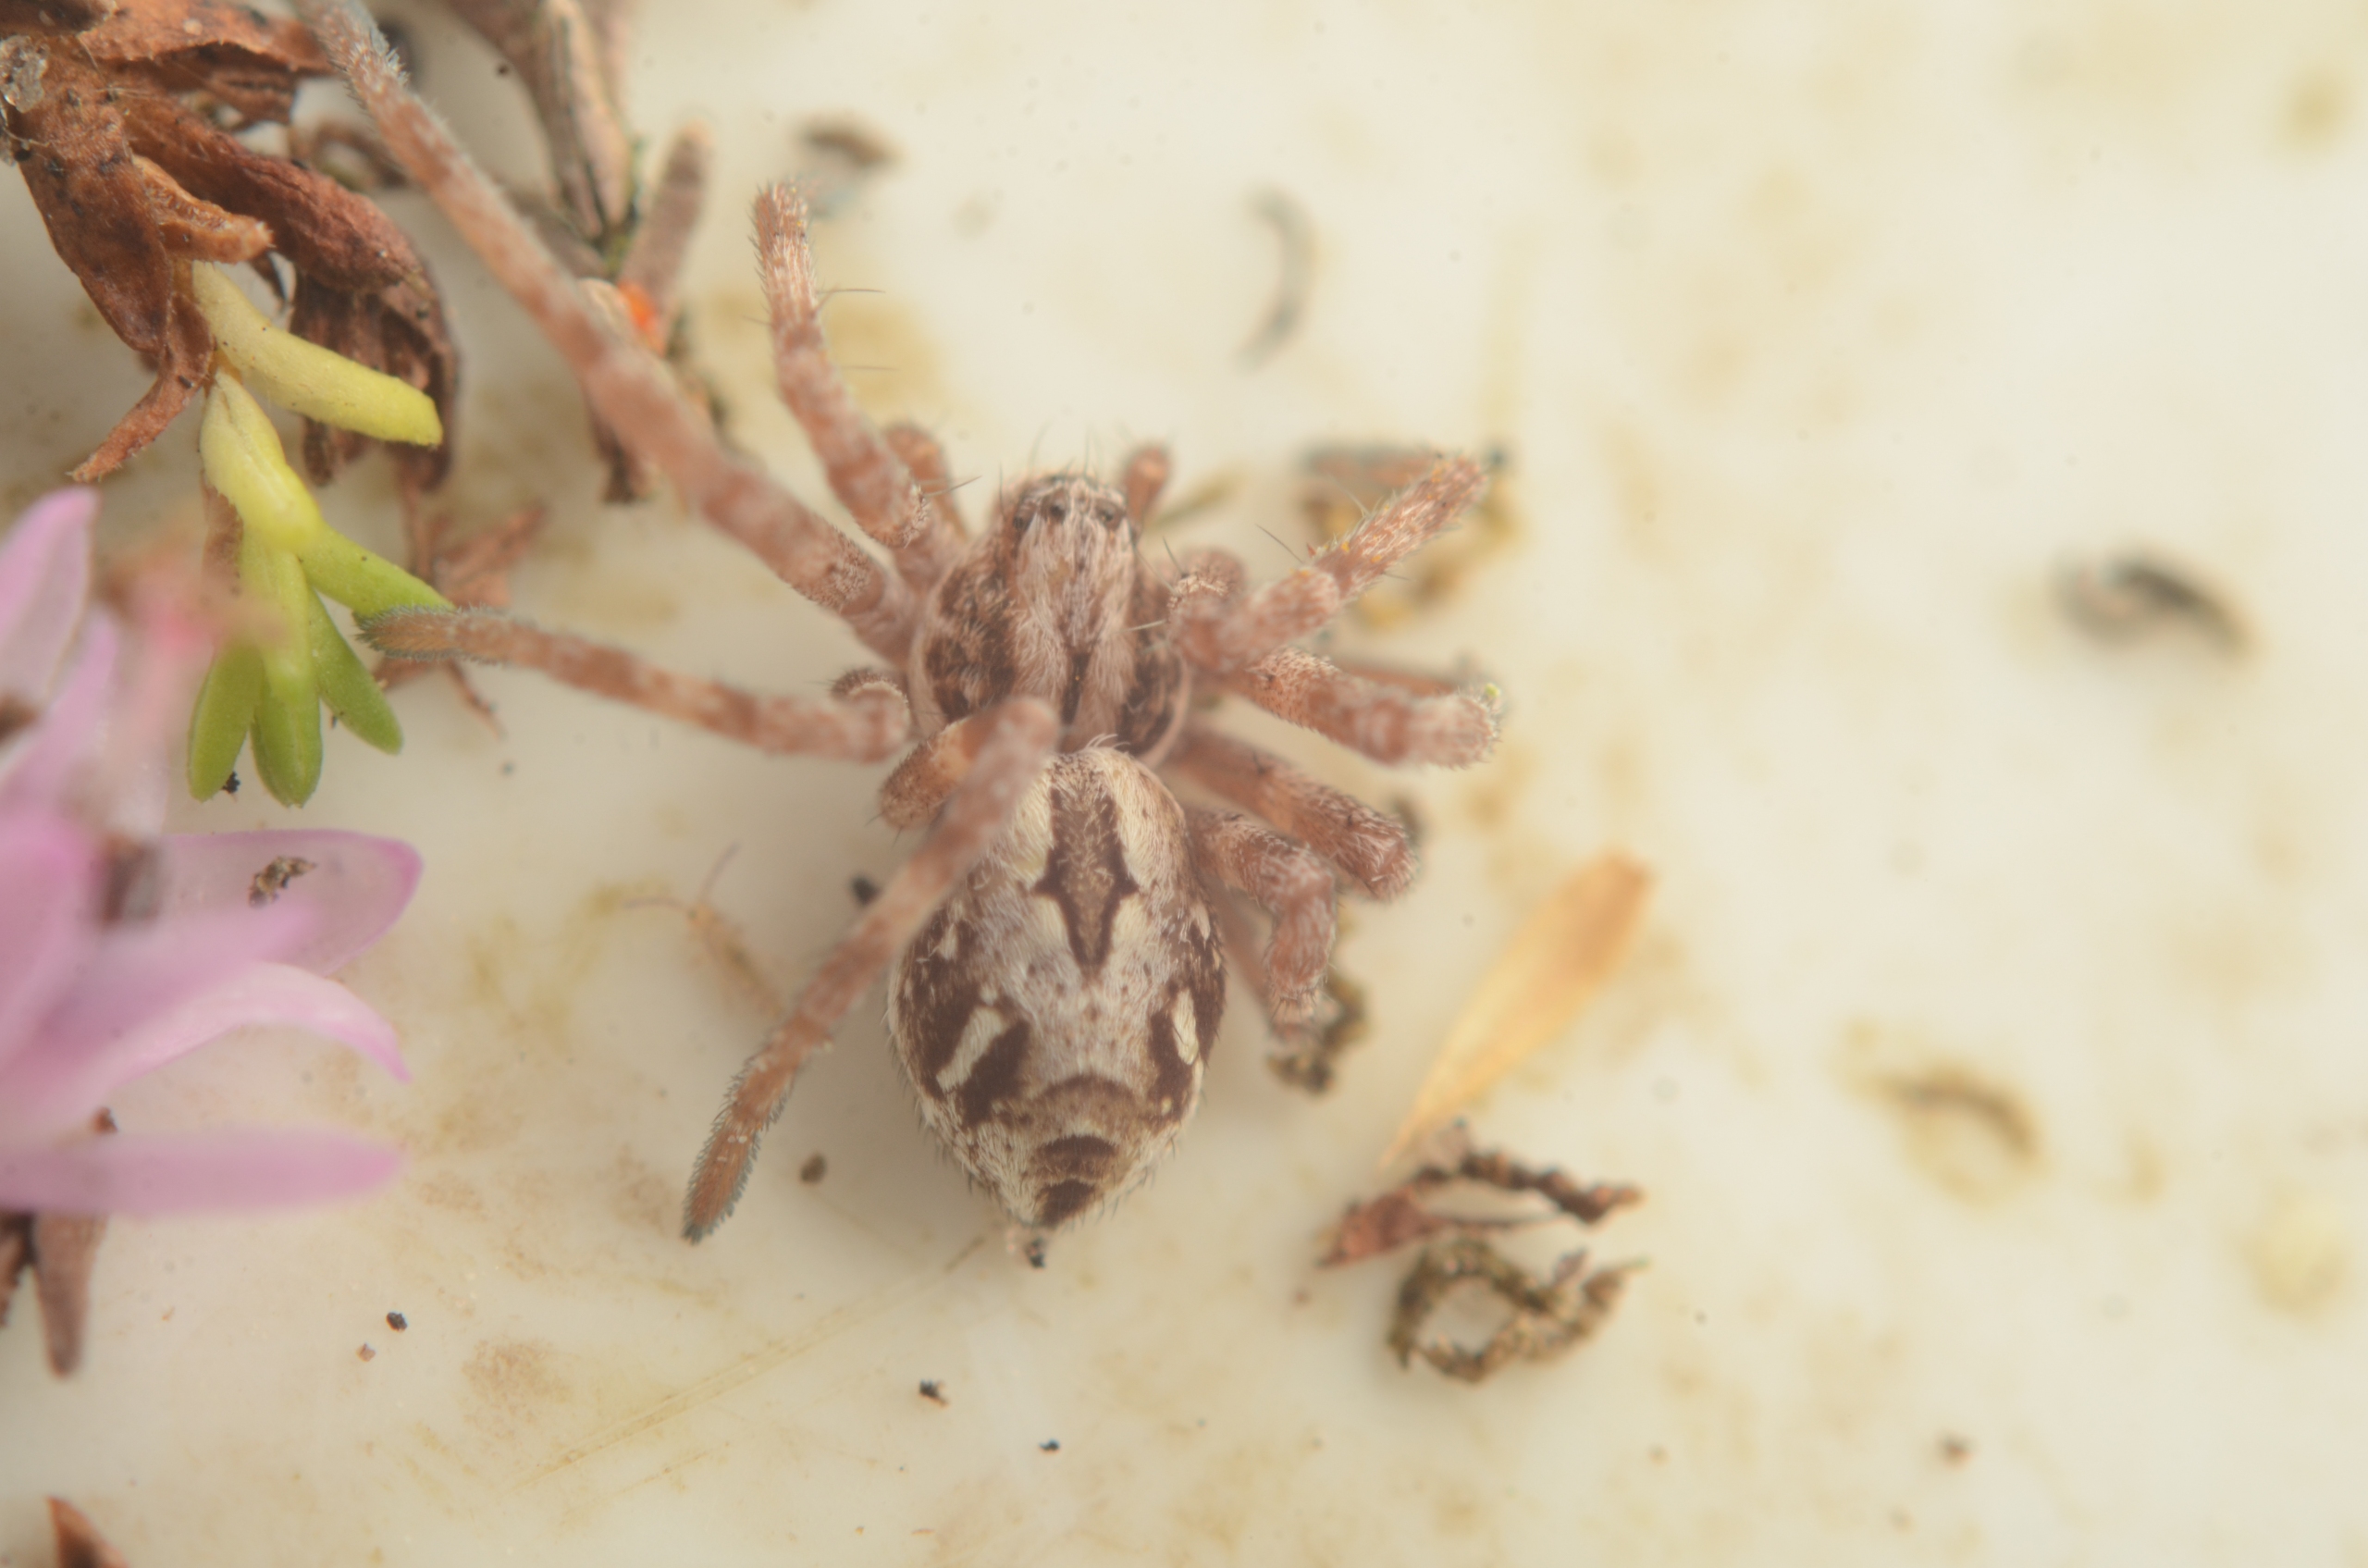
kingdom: Animalia
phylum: Arthropoda
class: Arachnida
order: Araneae
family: Philodromidae
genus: Rhysodromus
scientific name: Rhysodromus histrio
